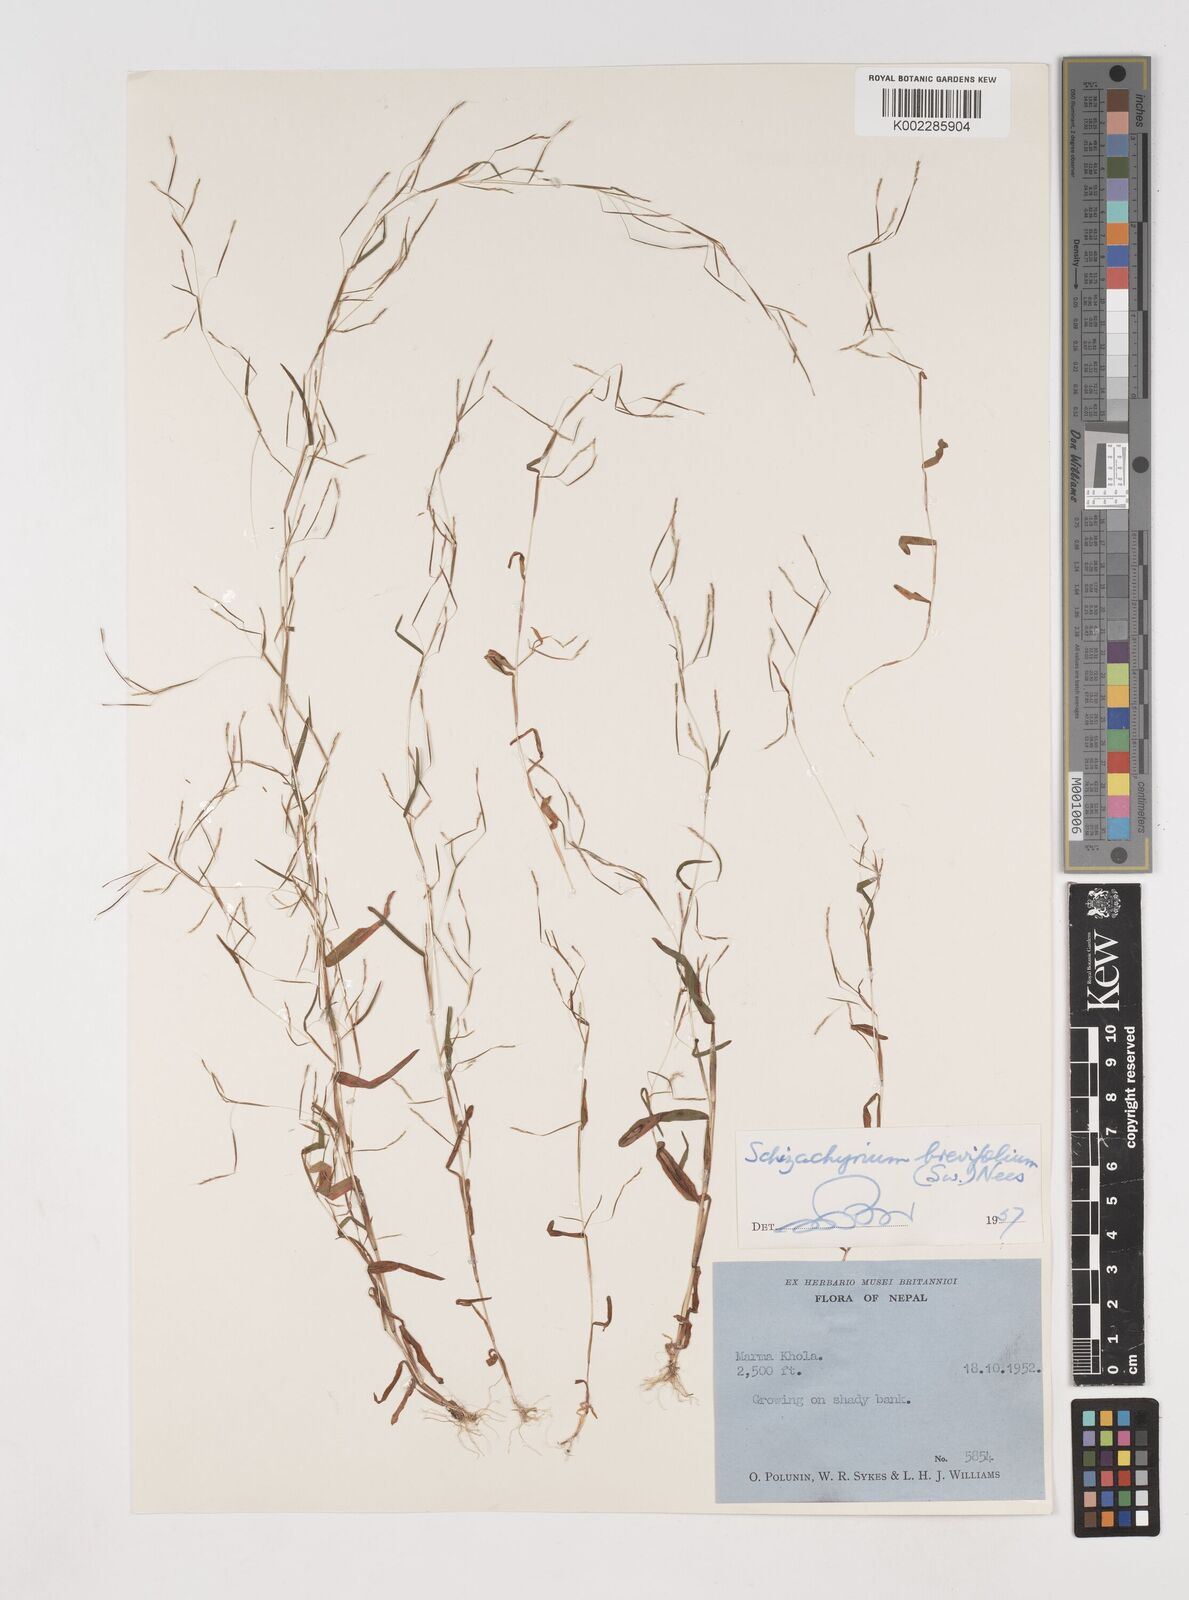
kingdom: Plantae
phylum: Tracheophyta
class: Liliopsida
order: Poales
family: Poaceae
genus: Schizachyrium
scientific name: Schizachyrium brevifolium
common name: Serillo dulce
